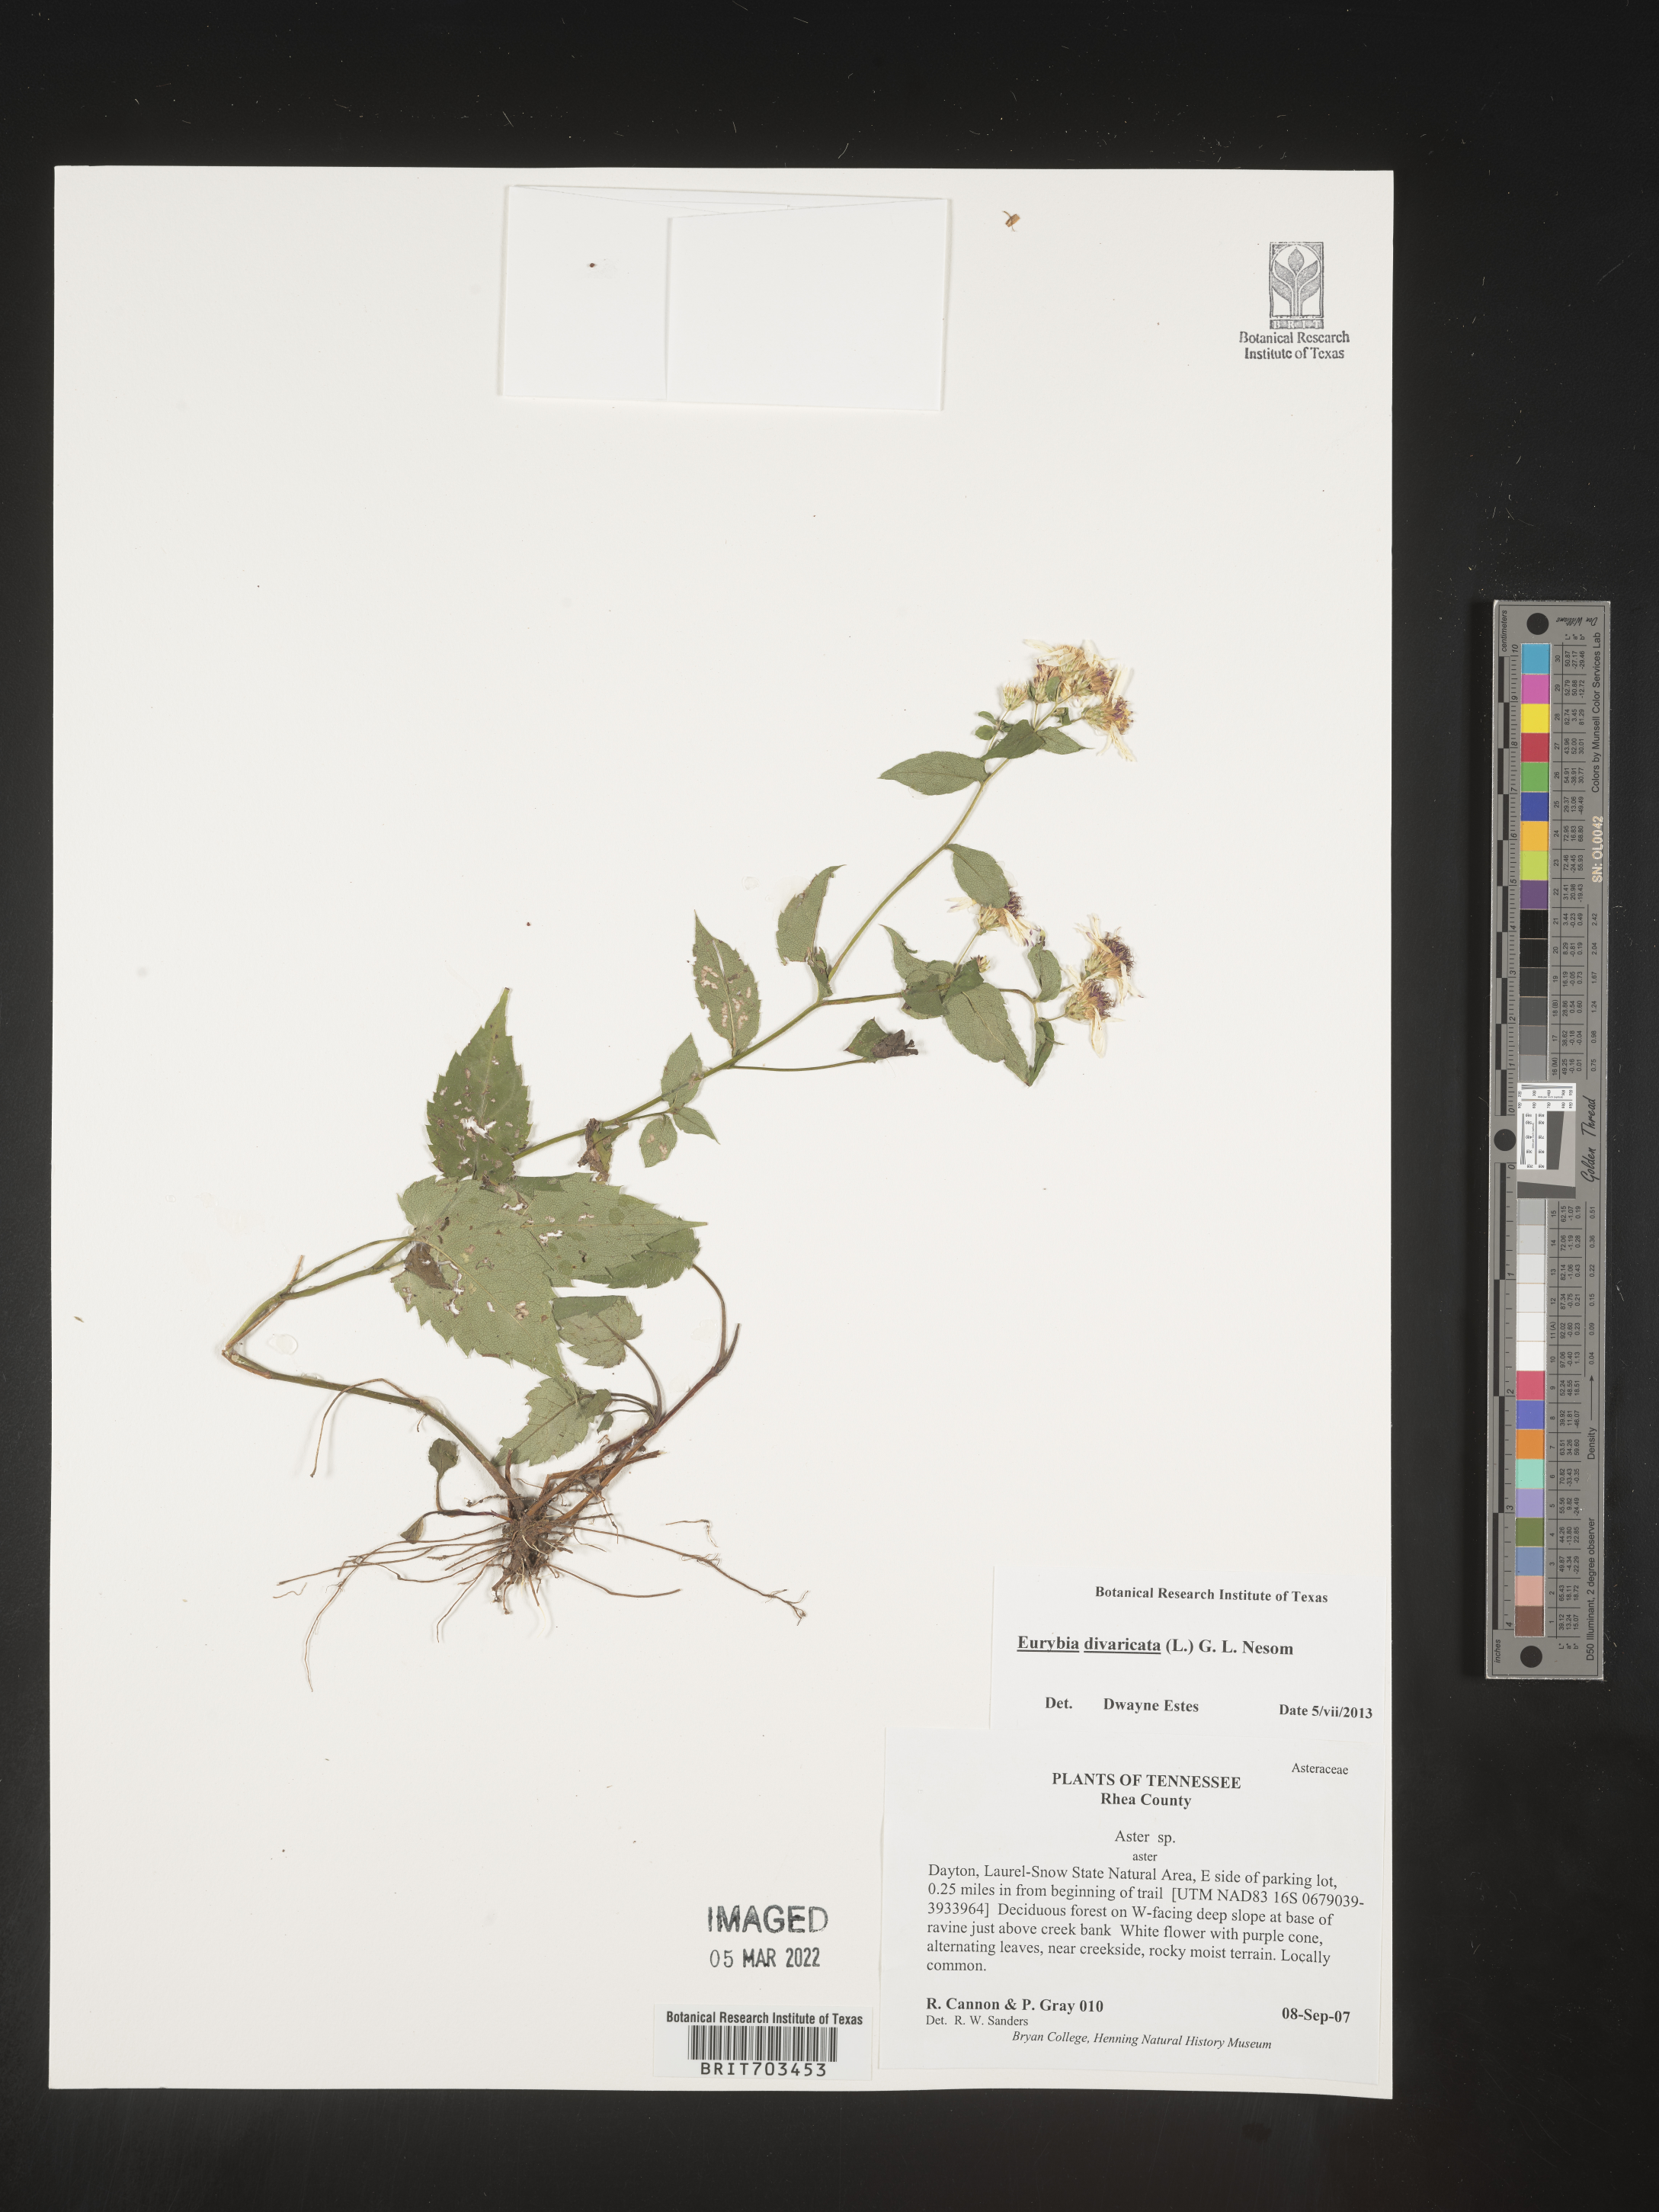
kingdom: Plantae
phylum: Tracheophyta
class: Magnoliopsida
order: Asterales
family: Asteraceae
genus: Eurybia
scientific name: Eurybia divaricata
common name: White wood aster
